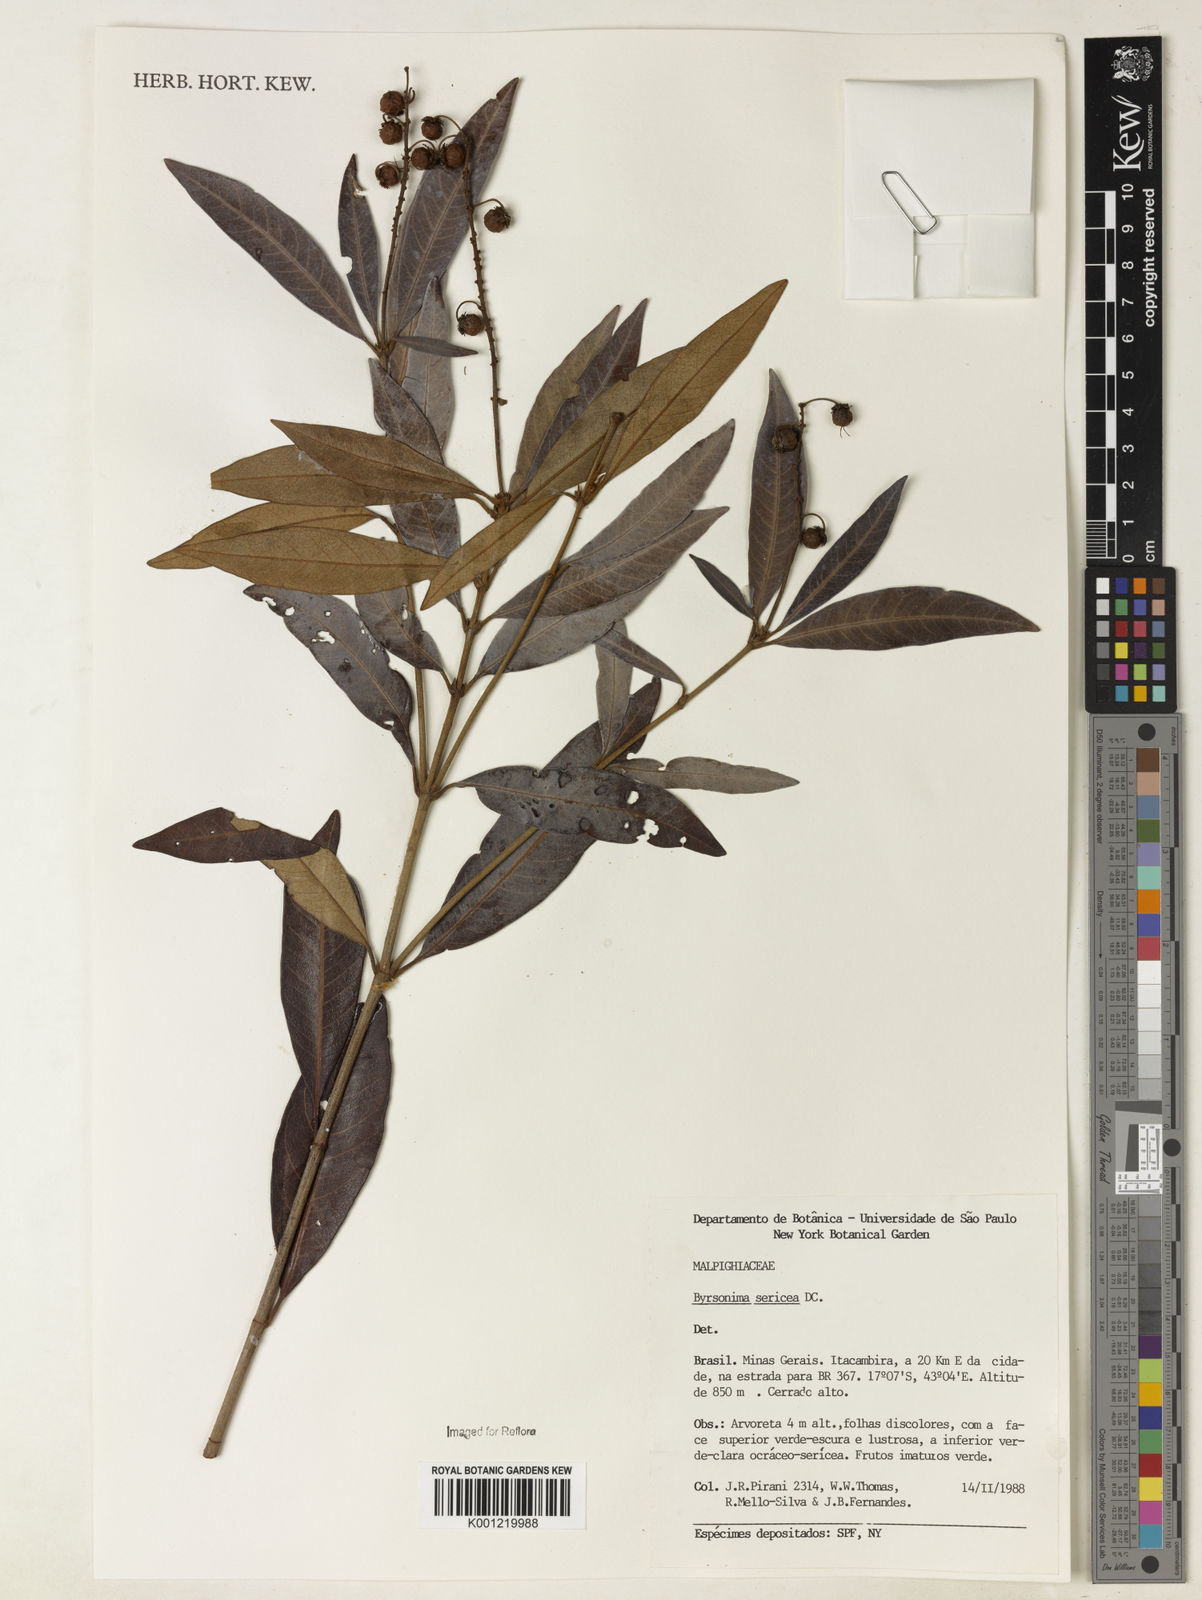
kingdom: Plantae
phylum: Tracheophyta
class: Magnoliopsida
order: Malpighiales
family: Malpighiaceae
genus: Byrsonima
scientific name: Byrsonima sericea
